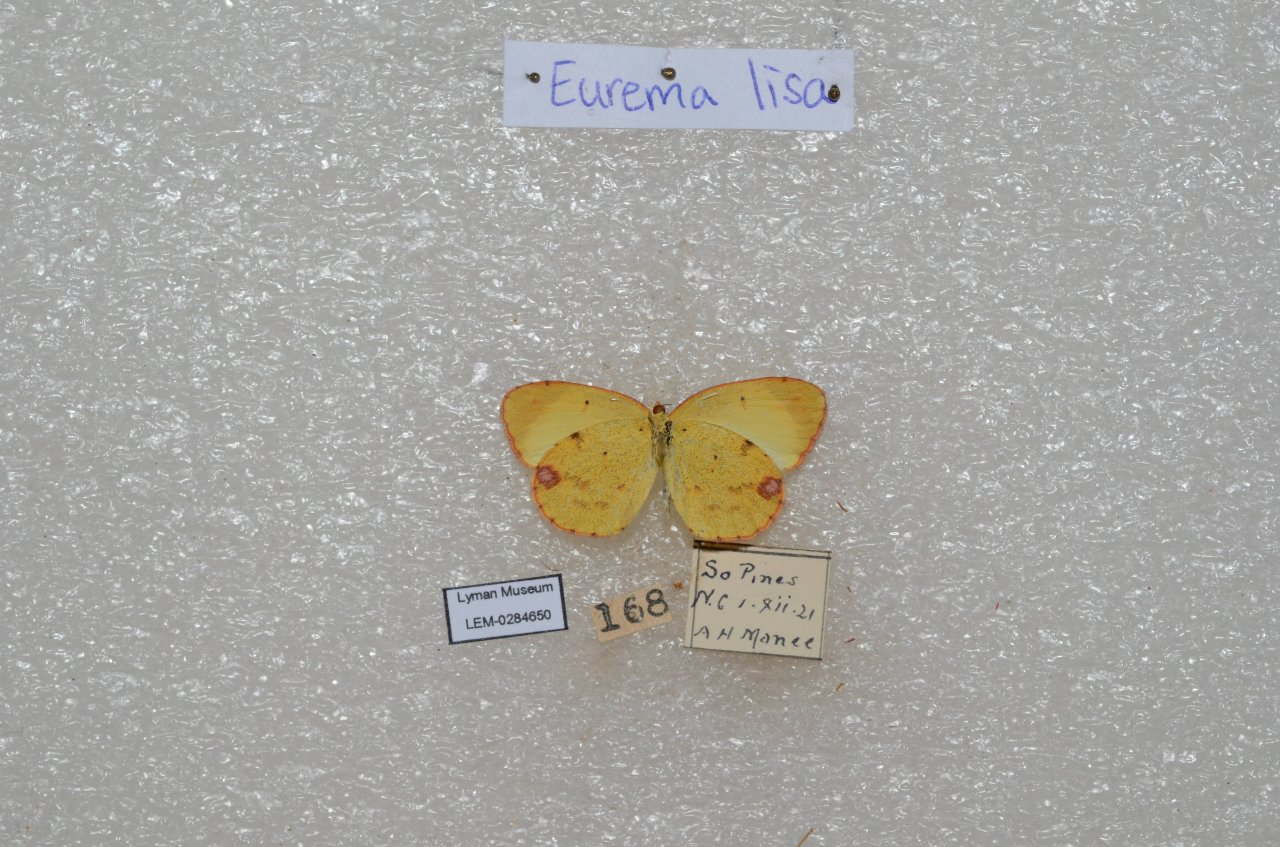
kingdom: Animalia
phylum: Arthropoda
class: Insecta
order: Lepidoptera
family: Pieridae
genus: Pyrisitia
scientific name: Pyrisitia lisa
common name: Little Yellow
